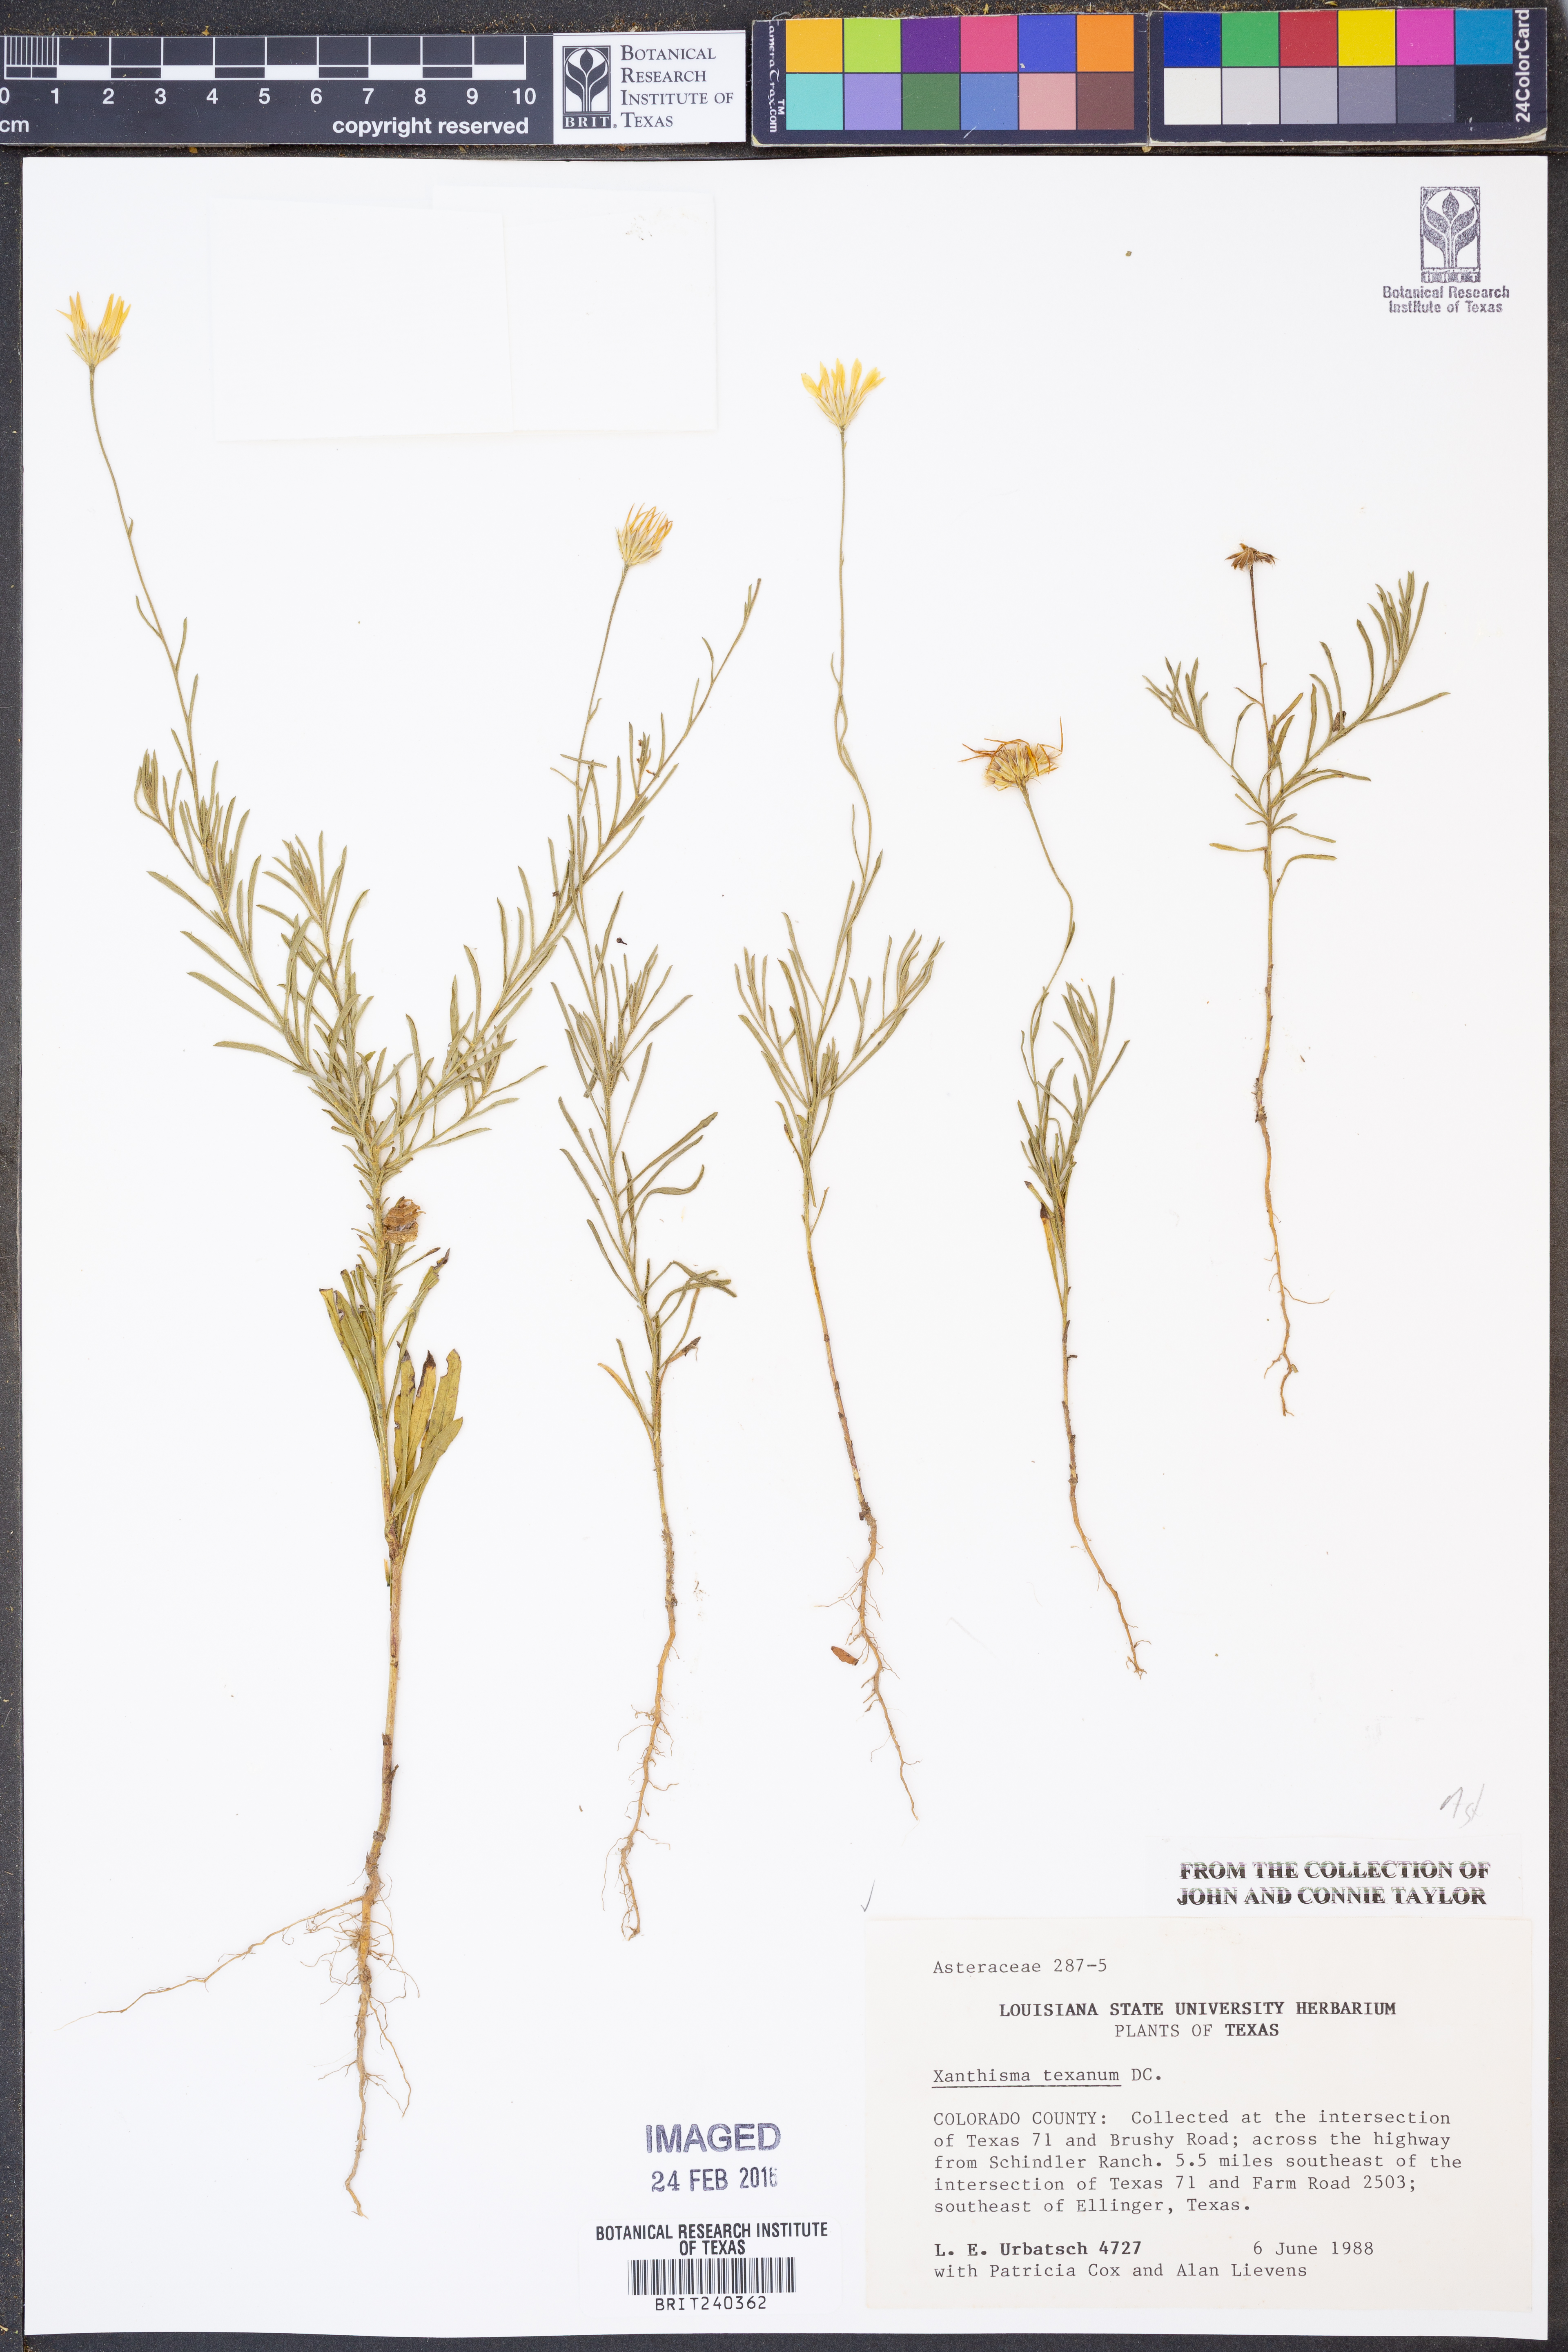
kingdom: Plantae
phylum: Tracheophyta
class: Magnoliopsida
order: Asterales
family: Asteraceae
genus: Xanthisma
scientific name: Xanthisma texanum
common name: Texas sleepy daisy
